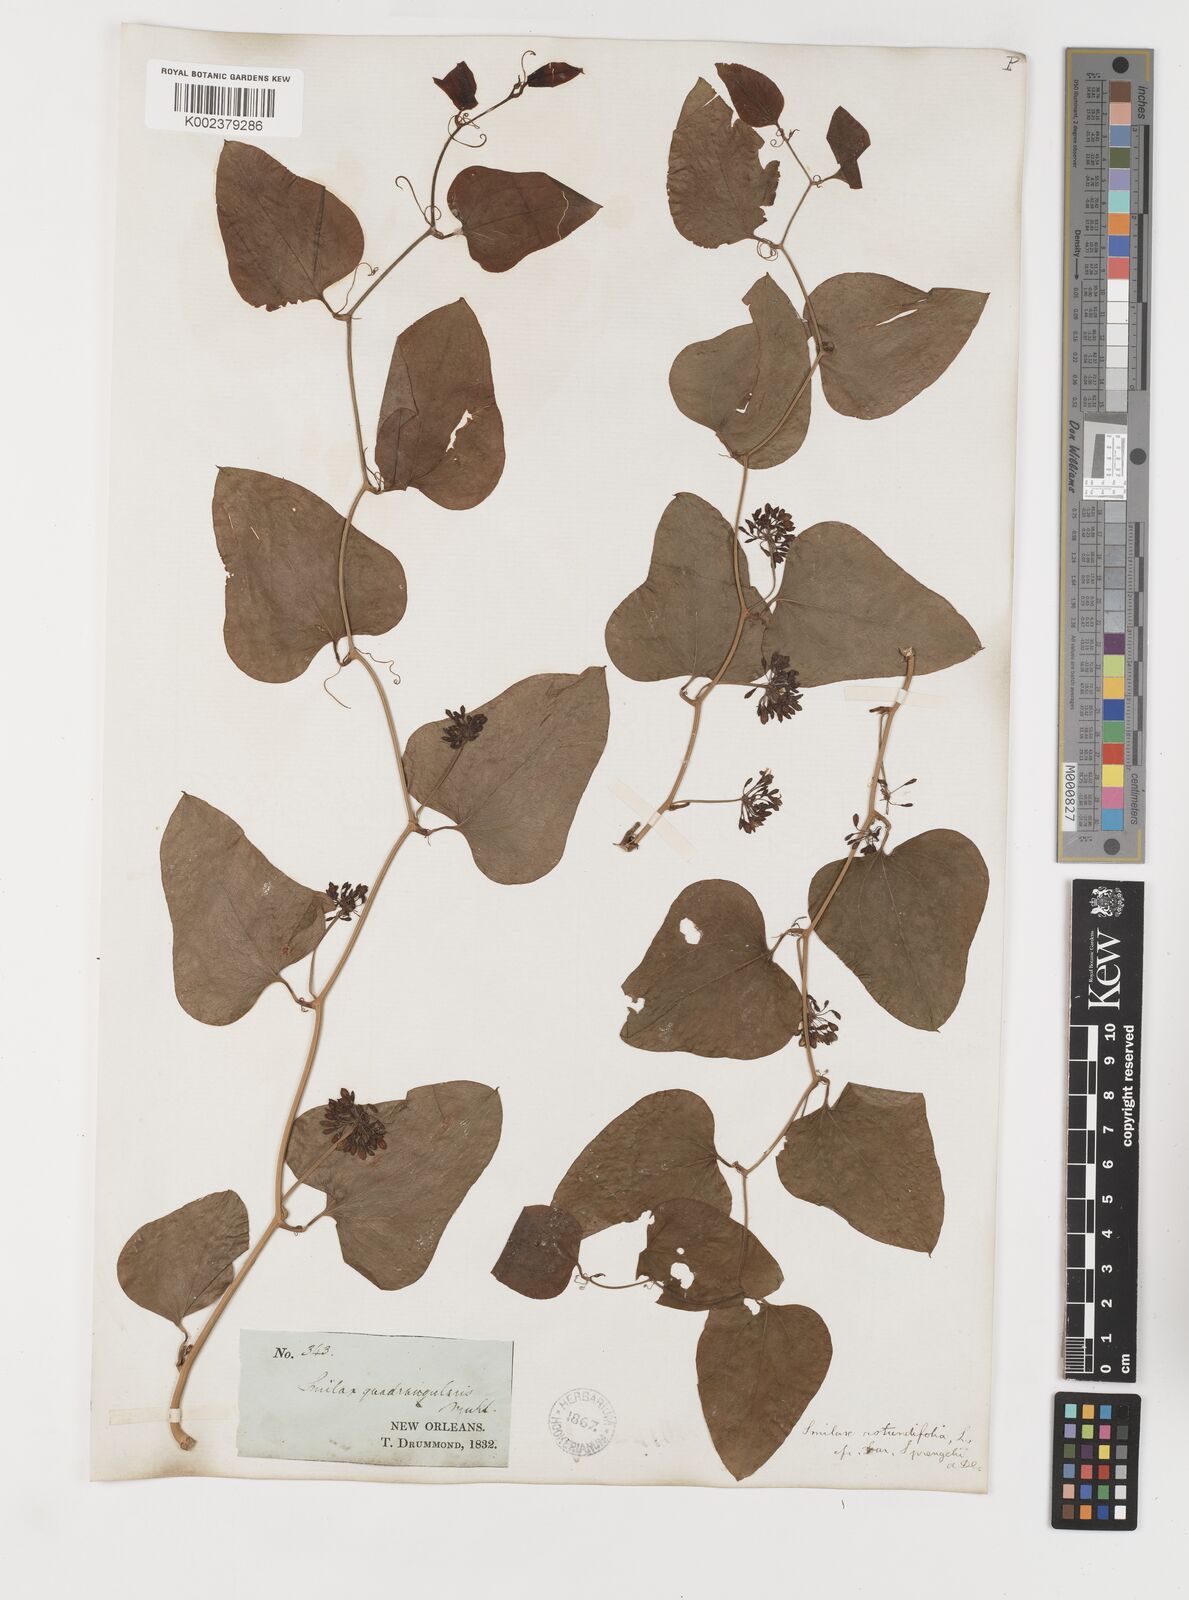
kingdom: Plantae
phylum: Tracheophyta
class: Liliopsida
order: Liliales
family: Smilacaceae
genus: Smilax
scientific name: Smilax rotundifolia
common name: Bullbriar
